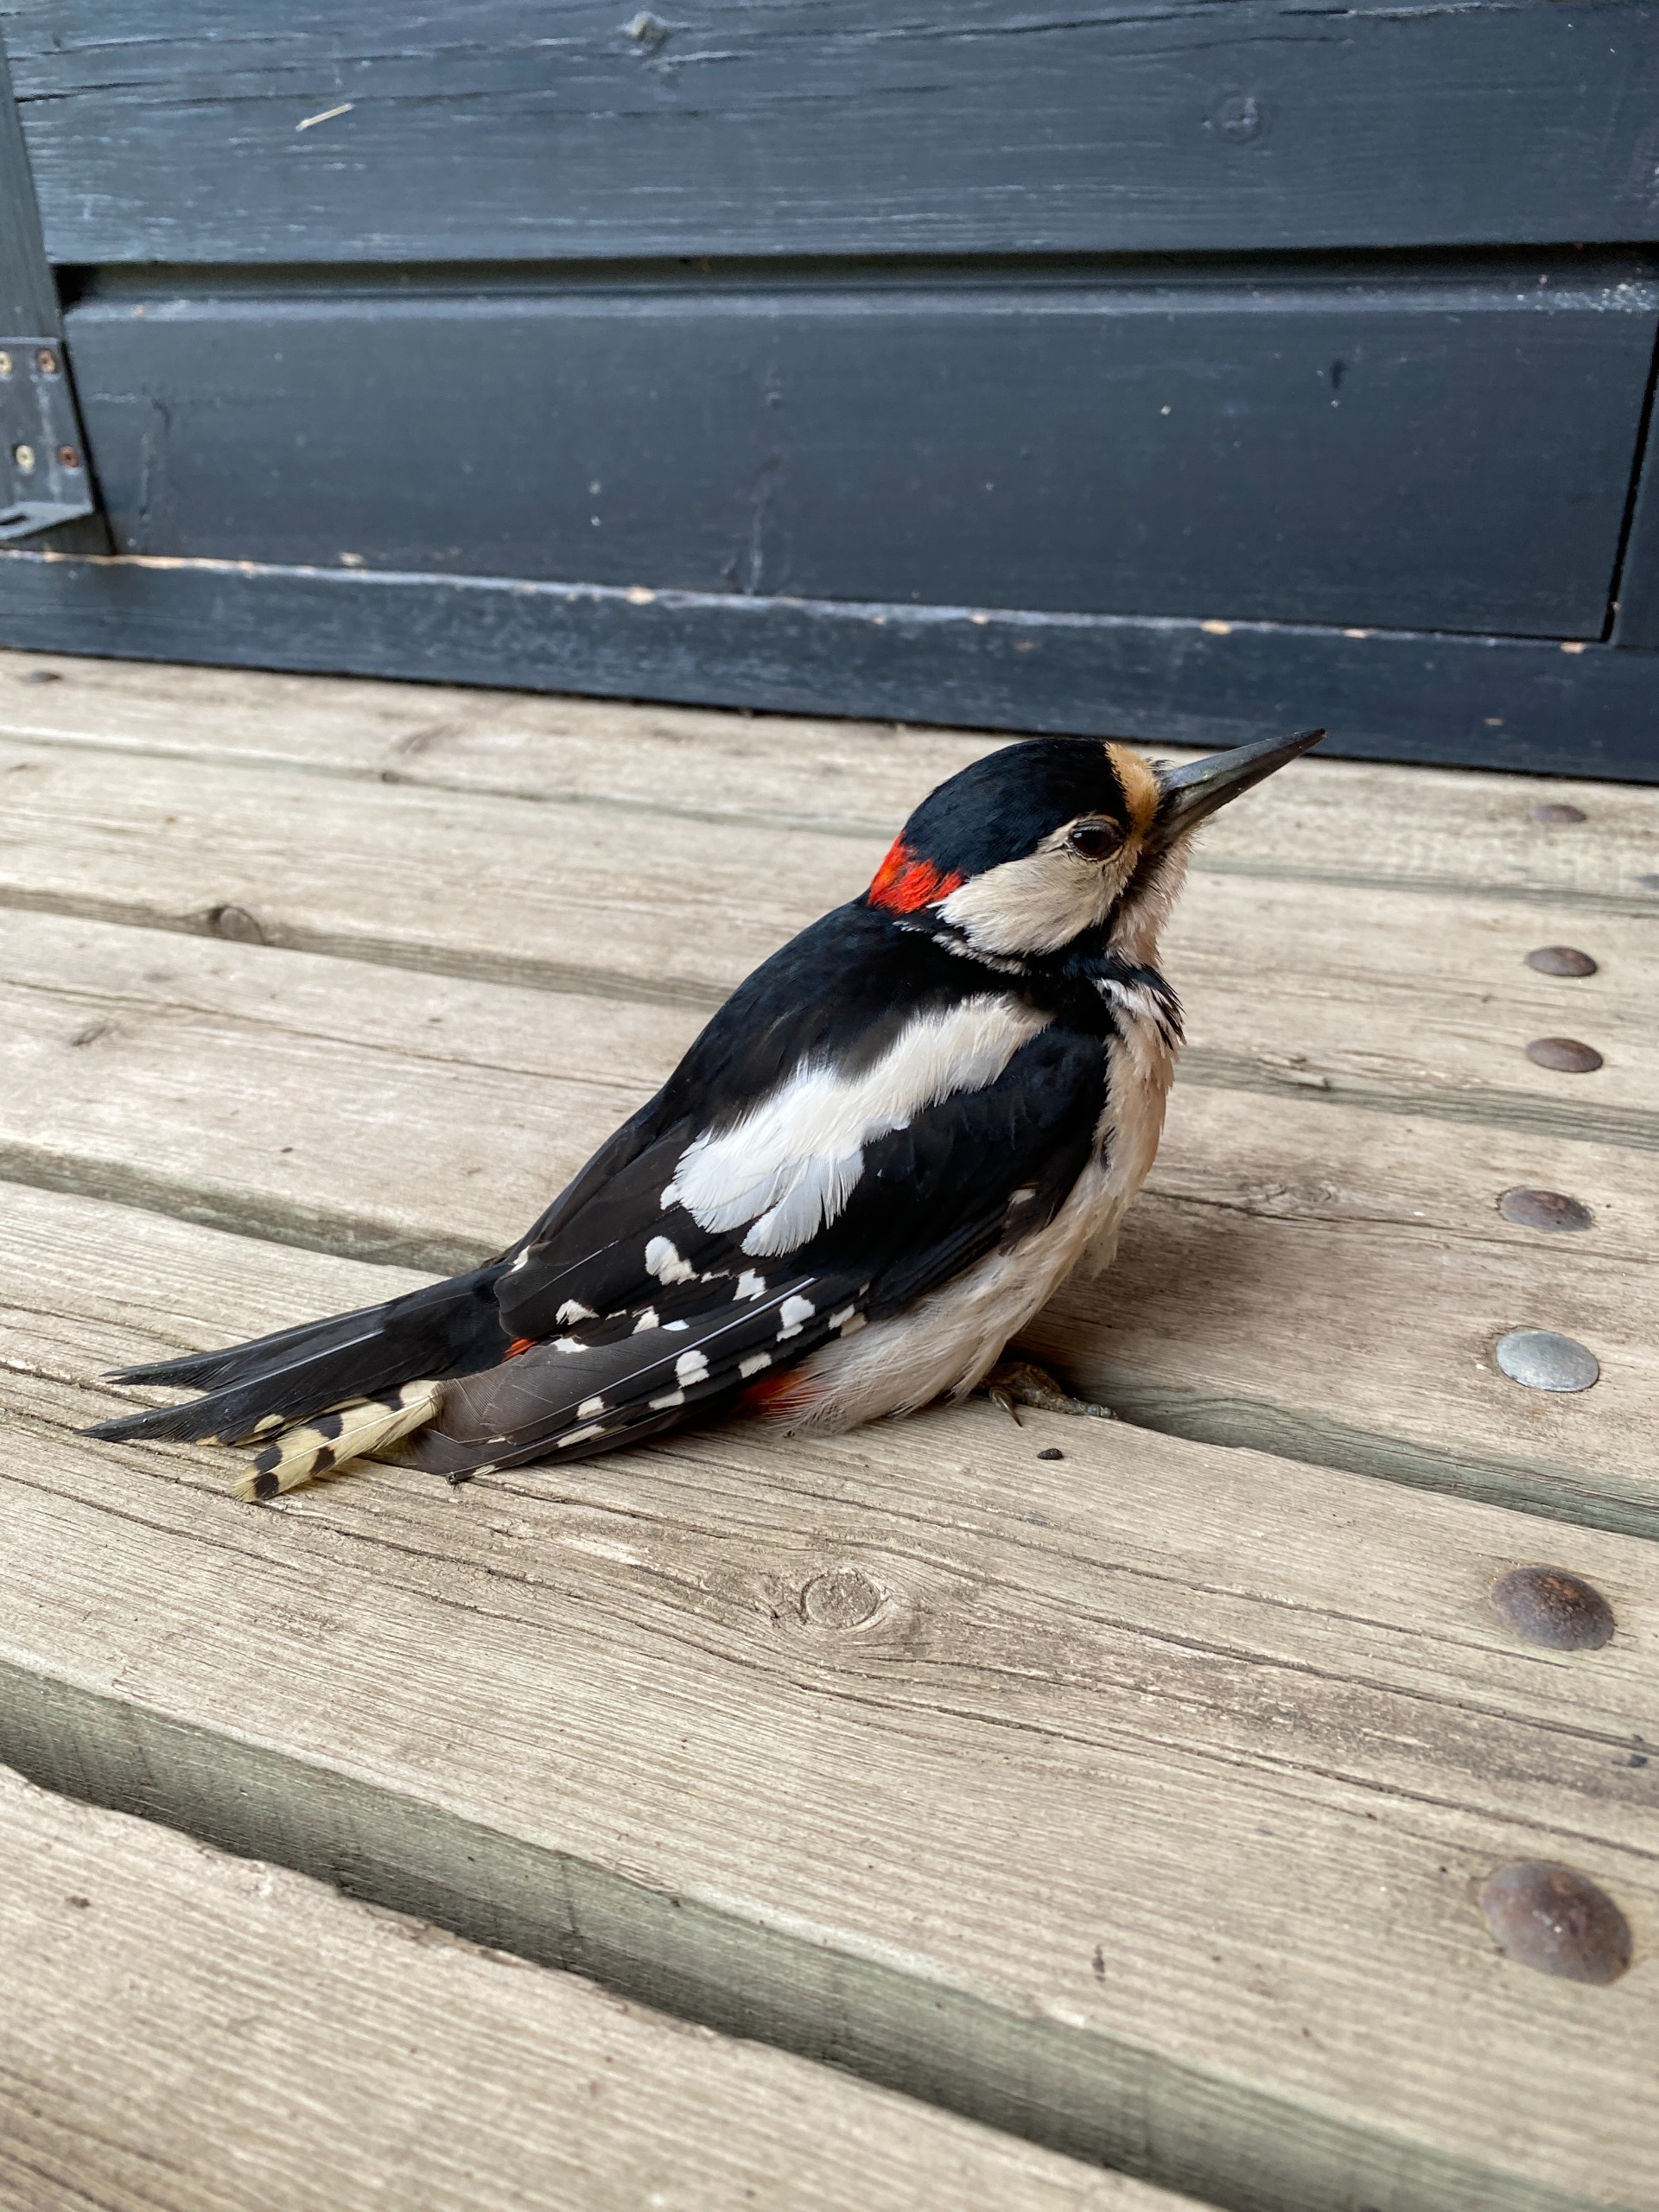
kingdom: Animalia
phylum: Chordata
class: Aves
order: Piciformes
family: Picidae
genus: Dendrocopos
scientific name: Dendrocopos major
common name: Stor flagspætte
